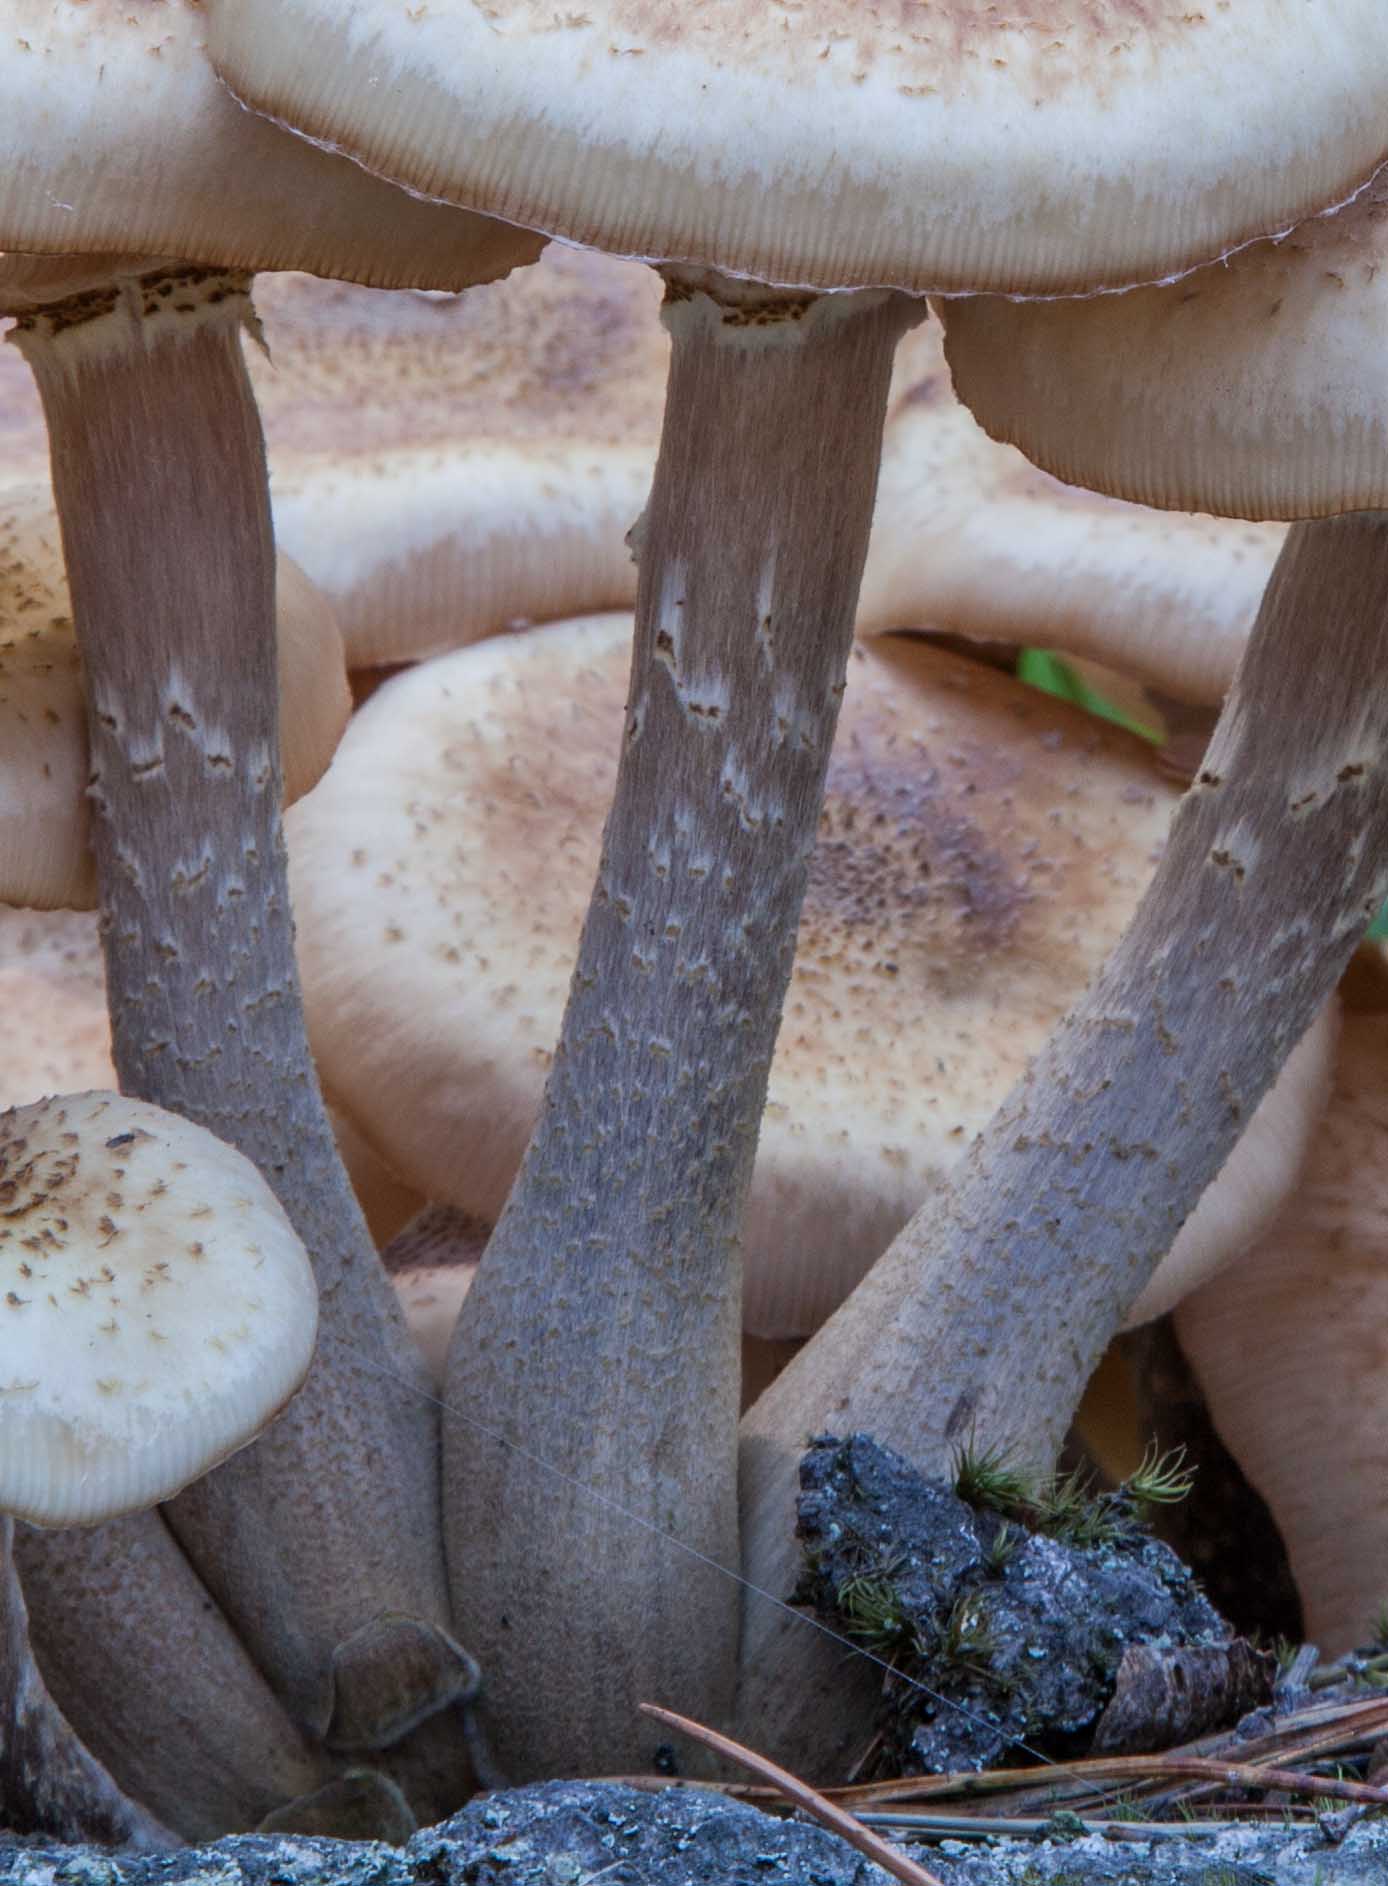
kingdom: Fungi
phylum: Basidiomycota
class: Agaricomycetes
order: Agaricales
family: Physalacriaceae
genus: Armillaria
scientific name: Armillaria borealis
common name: nordlig honningsvamp
